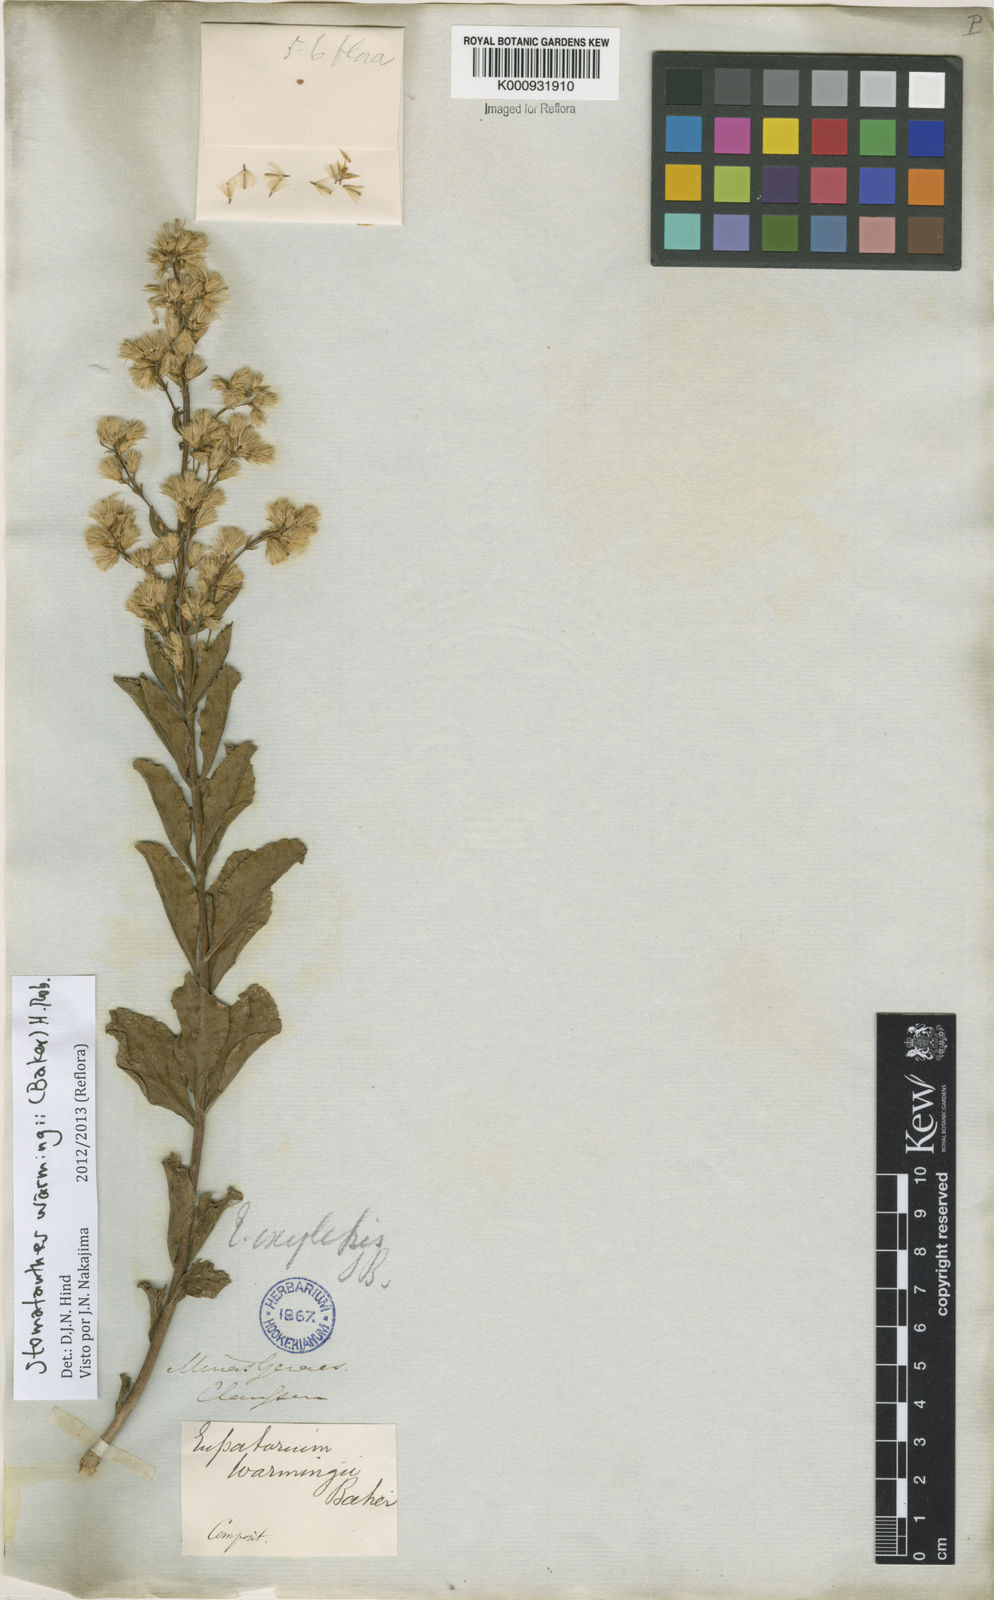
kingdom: Plantae
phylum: Tracheophyta
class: Magnoliopsida
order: Asterales
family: Asteraceae
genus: Stomatanthes
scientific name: Stomatanthes warmingii
